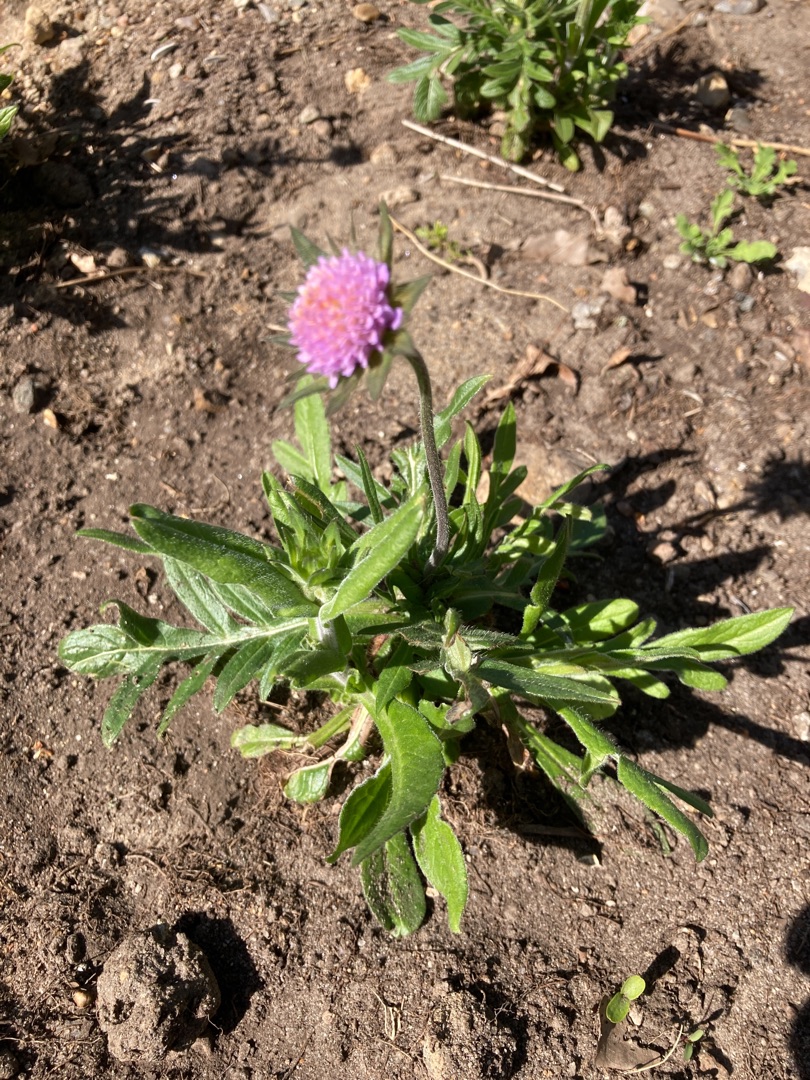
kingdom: Plantae
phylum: Tracheophyta
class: Magnoliopsida
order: Dipsacales
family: Caprifoliaceae
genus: Knautia
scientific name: Knautia arvensis
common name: Blåhat
